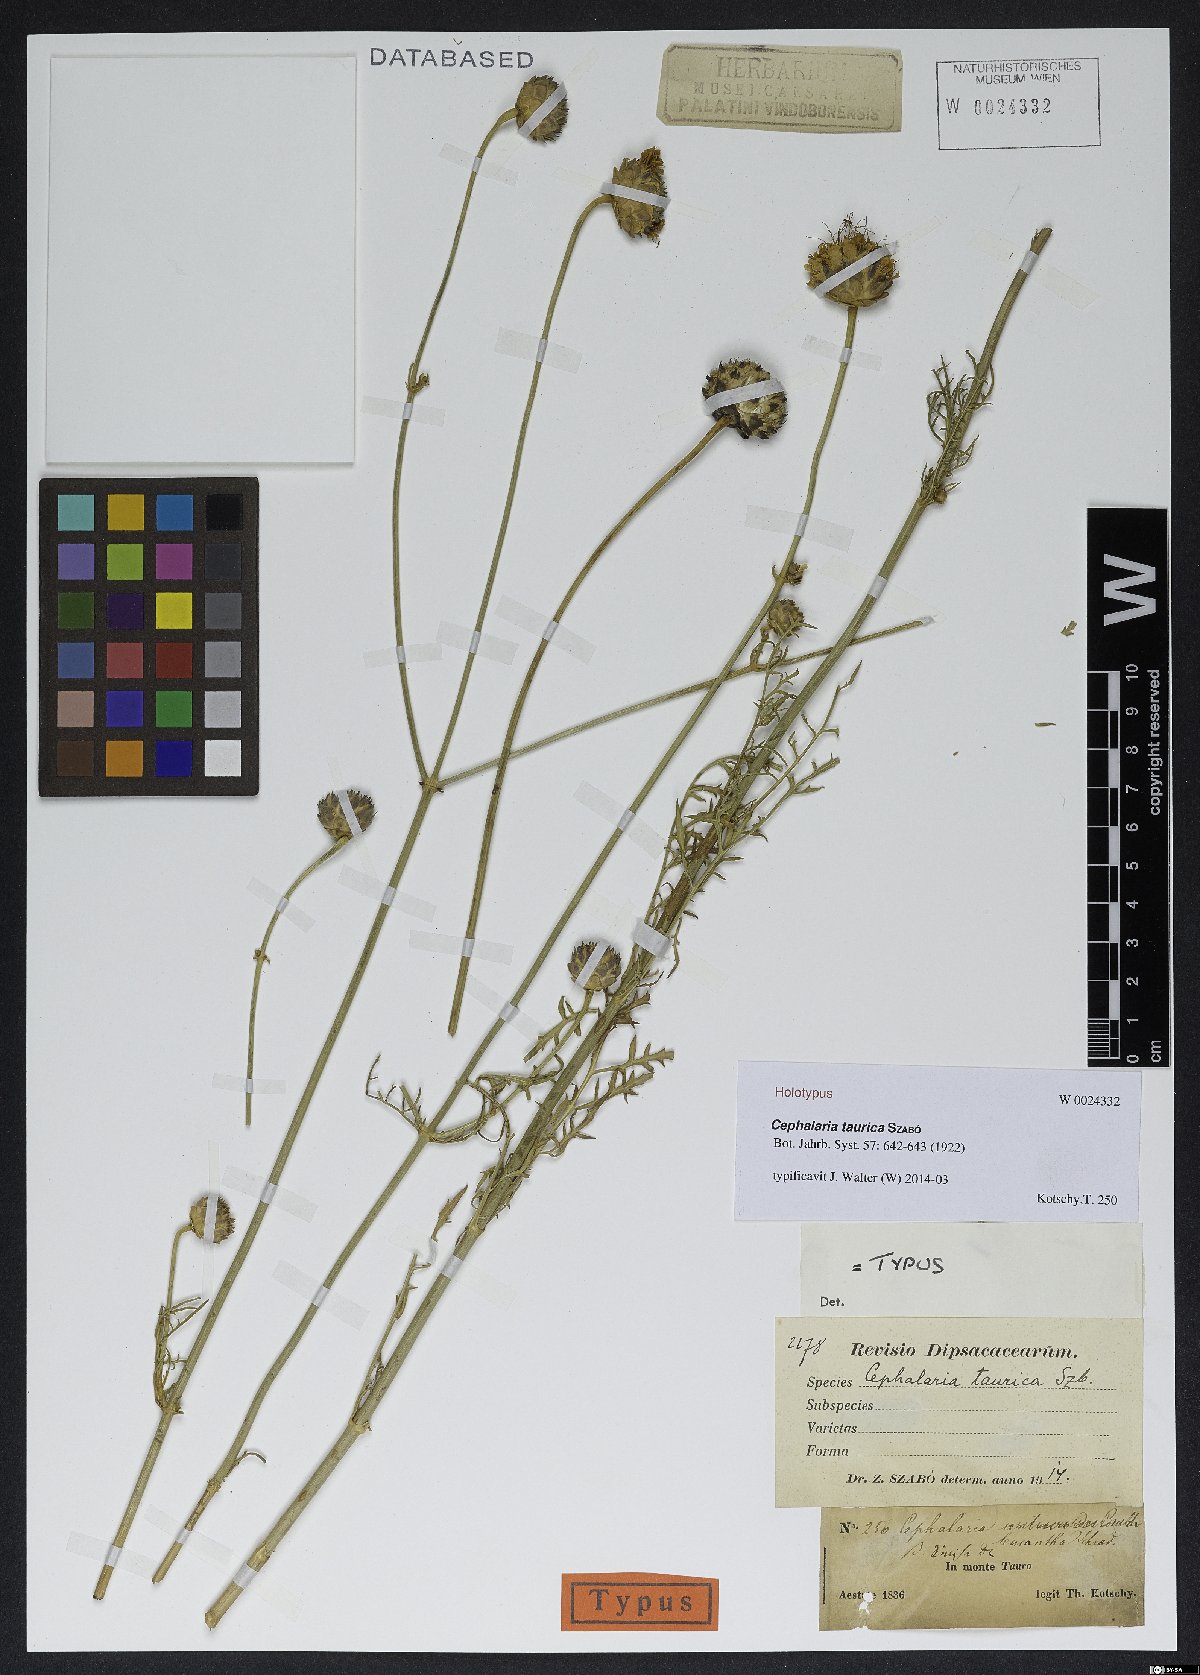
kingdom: Plantae
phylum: Tracheophyta
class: Magnoliopsida
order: Dipsacales
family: Caprifoliaceae
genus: Cephalaria
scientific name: Cephalaria taurica
